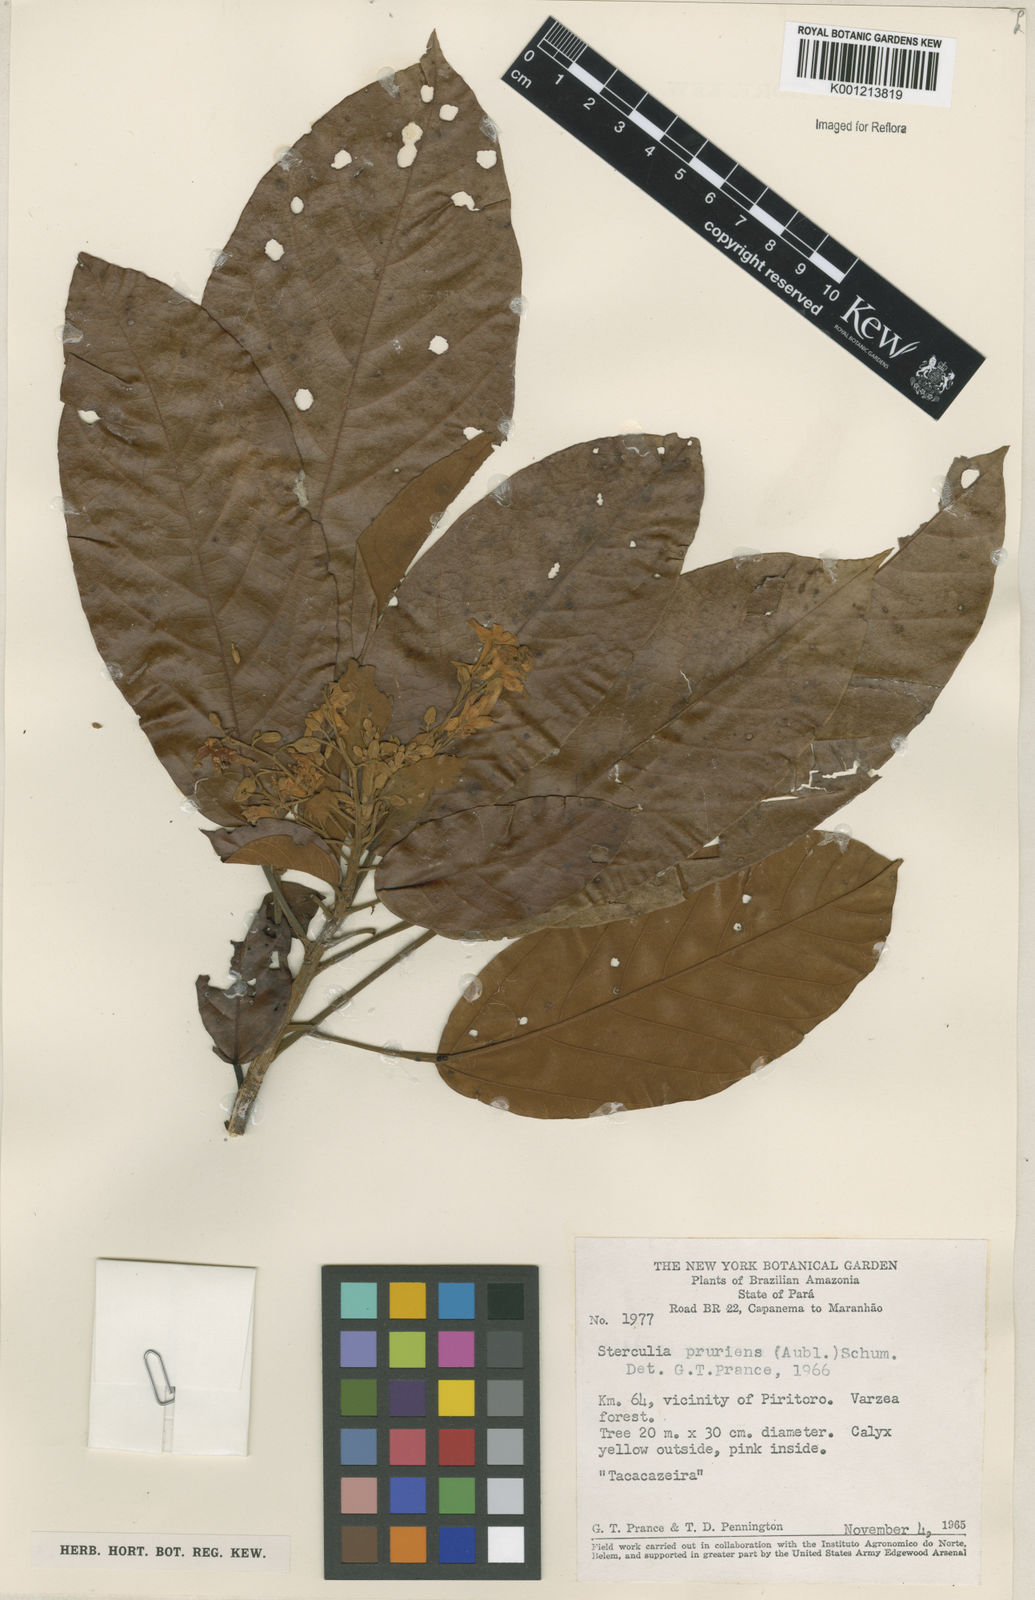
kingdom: Plantae
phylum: Tracheophyta
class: Magnoliopsida
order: Malvales
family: Malvaceae
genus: Sterculia
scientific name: Sterculia pruriens
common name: Grand mahot
